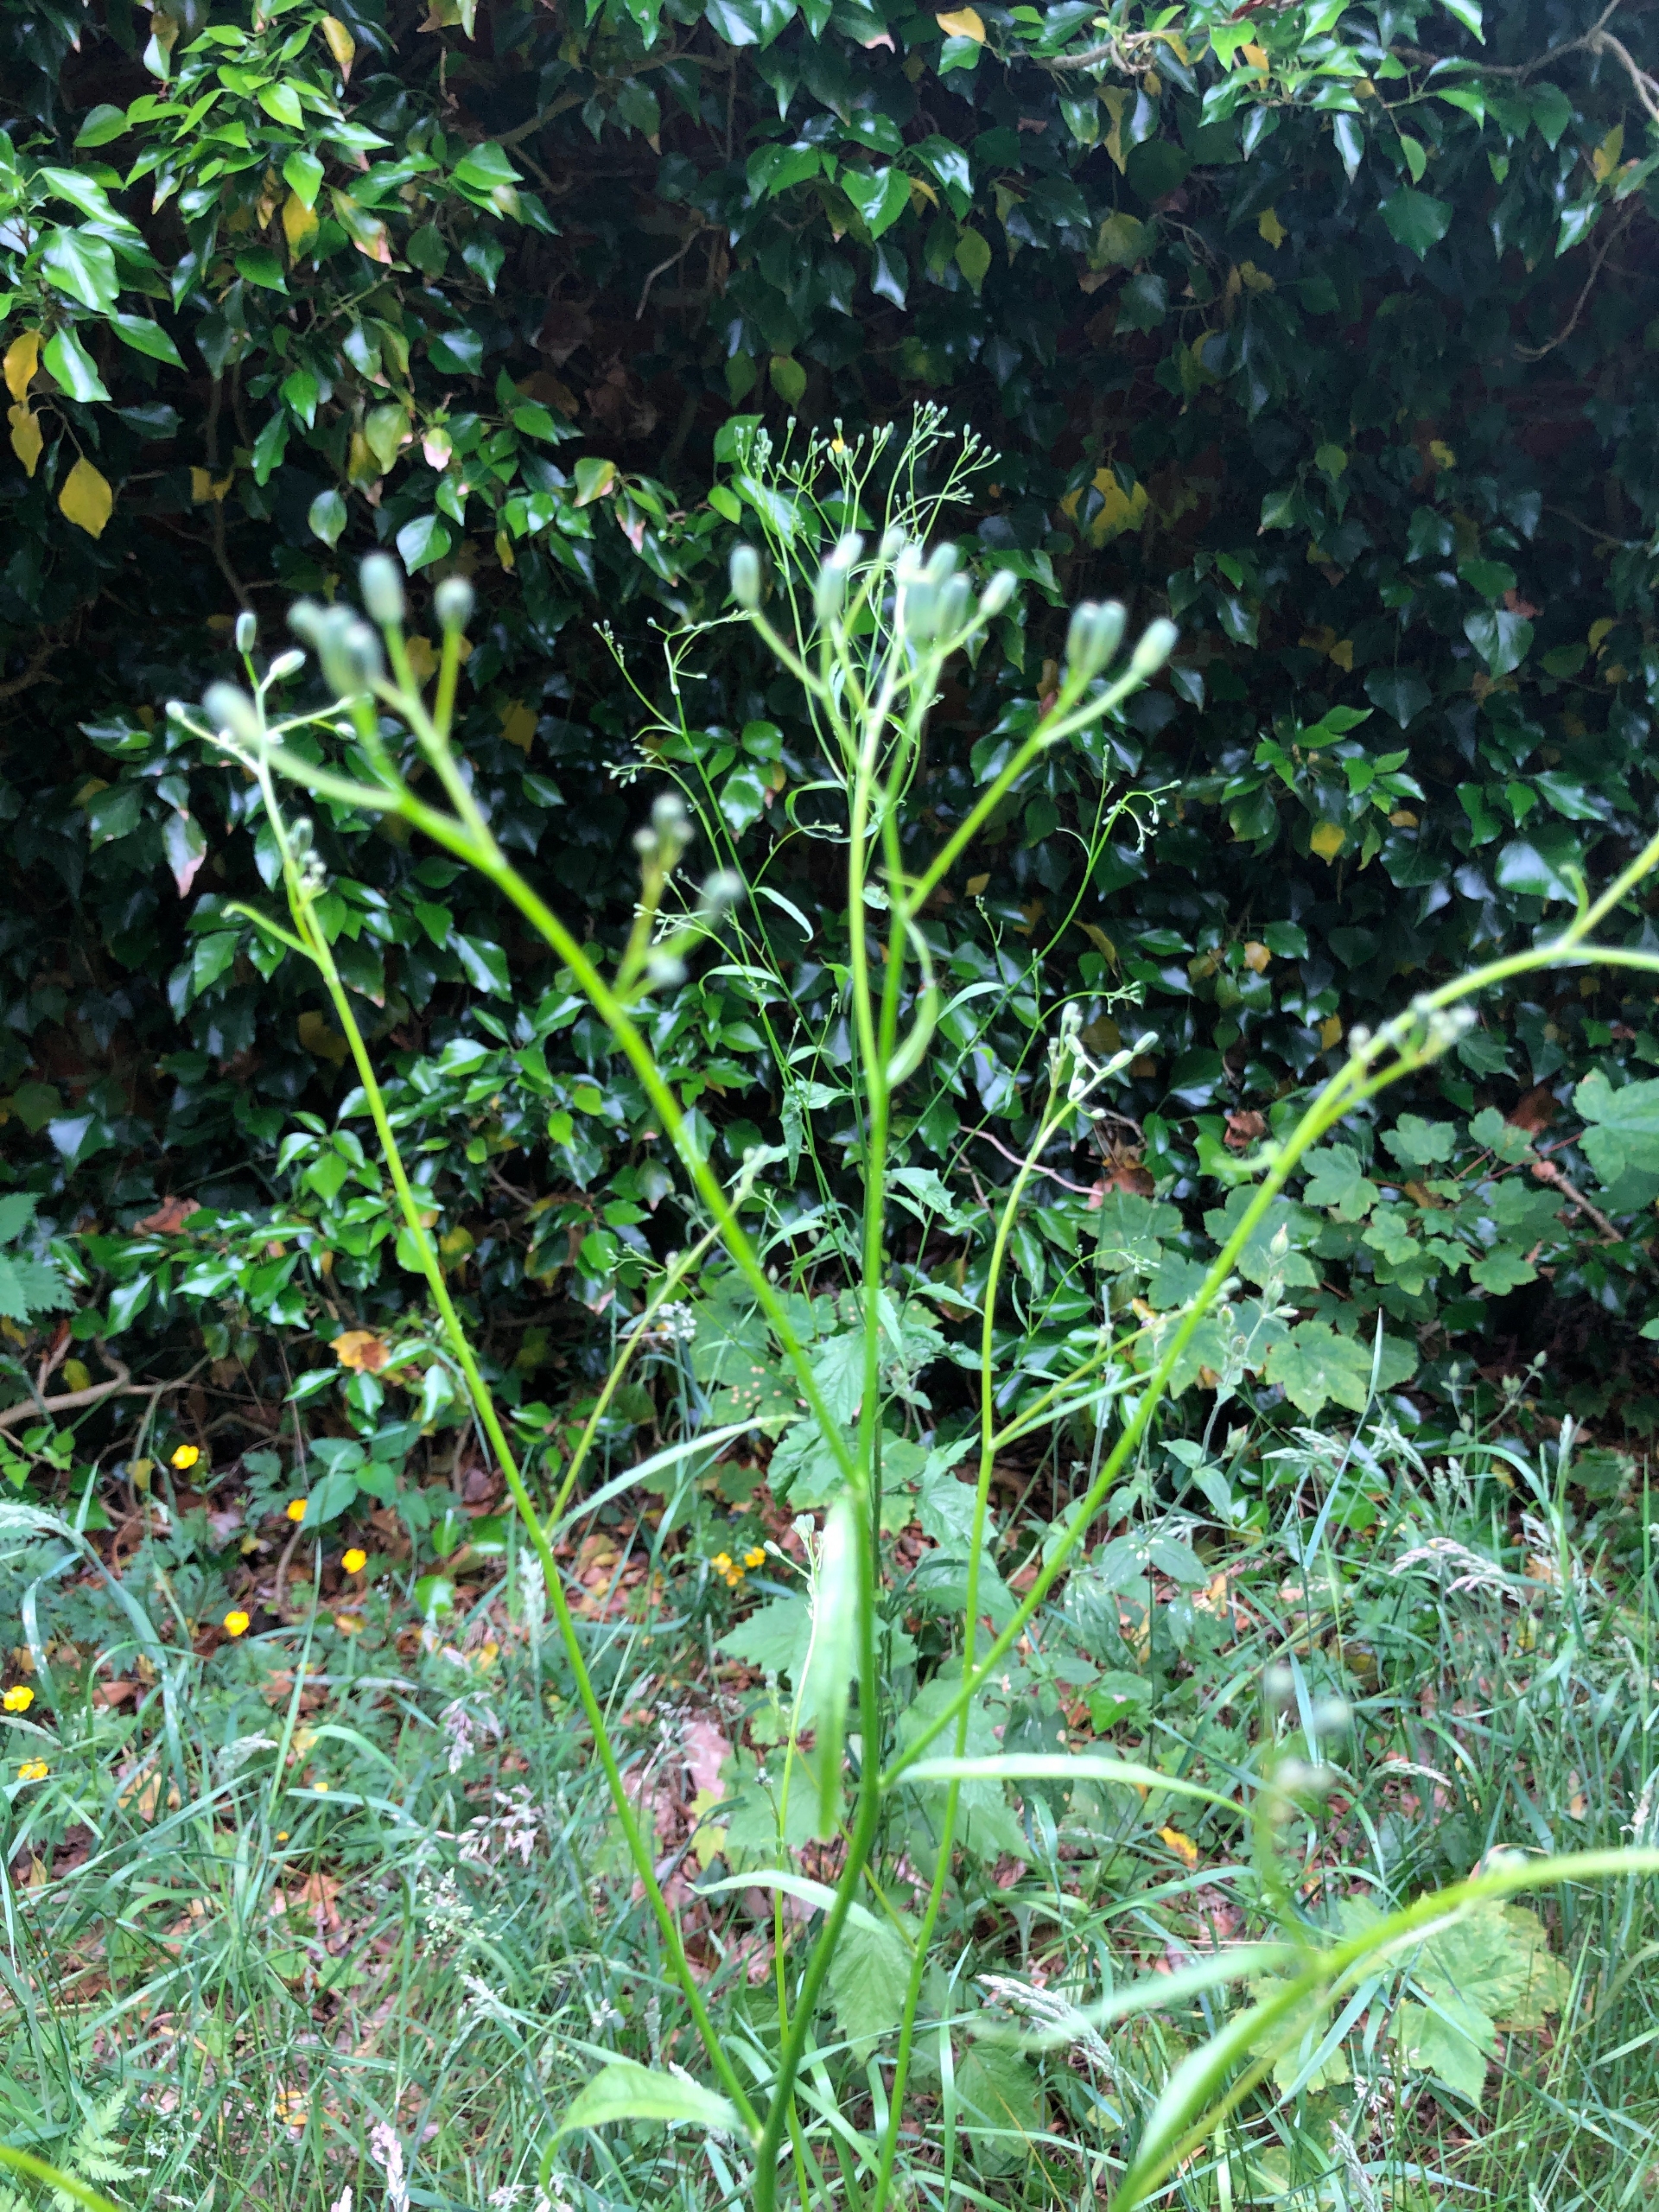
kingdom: Plantae
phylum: Tracheophyta
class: Magnoliopsida
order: Asterales
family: Asteraceae
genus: Lapsana
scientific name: Lapsana communis
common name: Haremad
